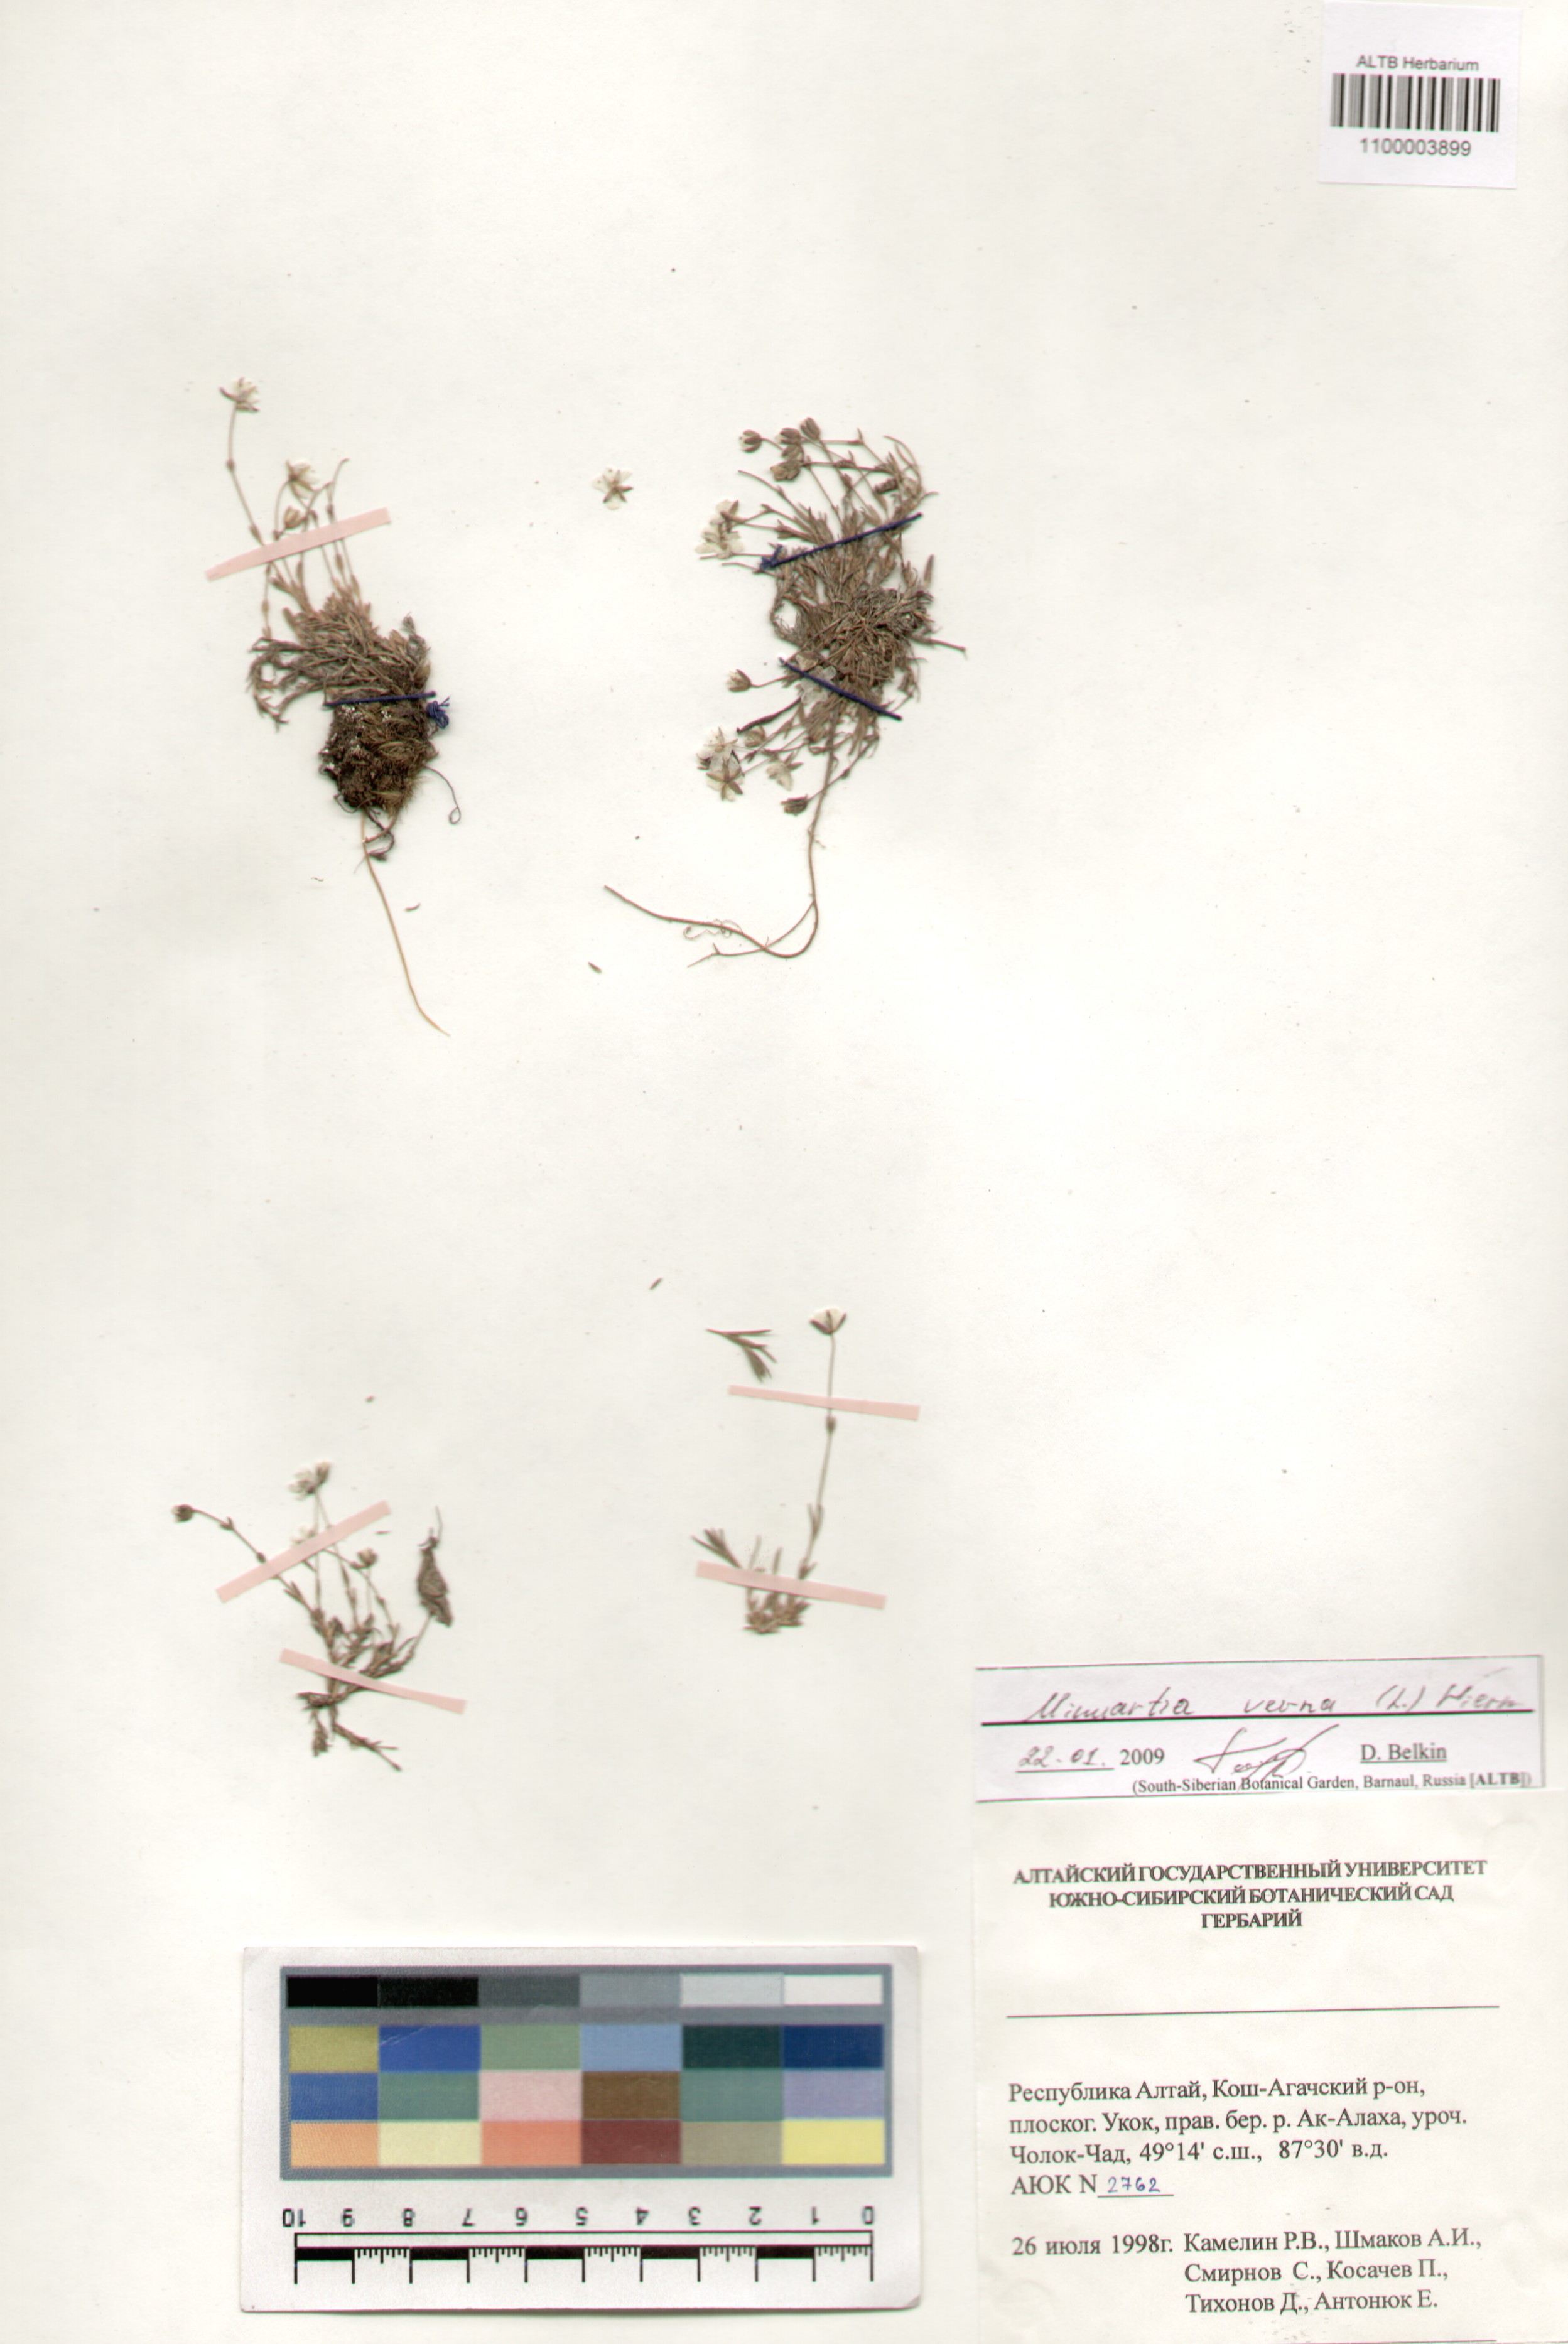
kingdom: Plantae
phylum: Tracheophyta
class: Magnoliopsida
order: Caryophyllales
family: Caryophyllaceae
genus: Sabulina
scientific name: Sabulina verna
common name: Spring sandwort
